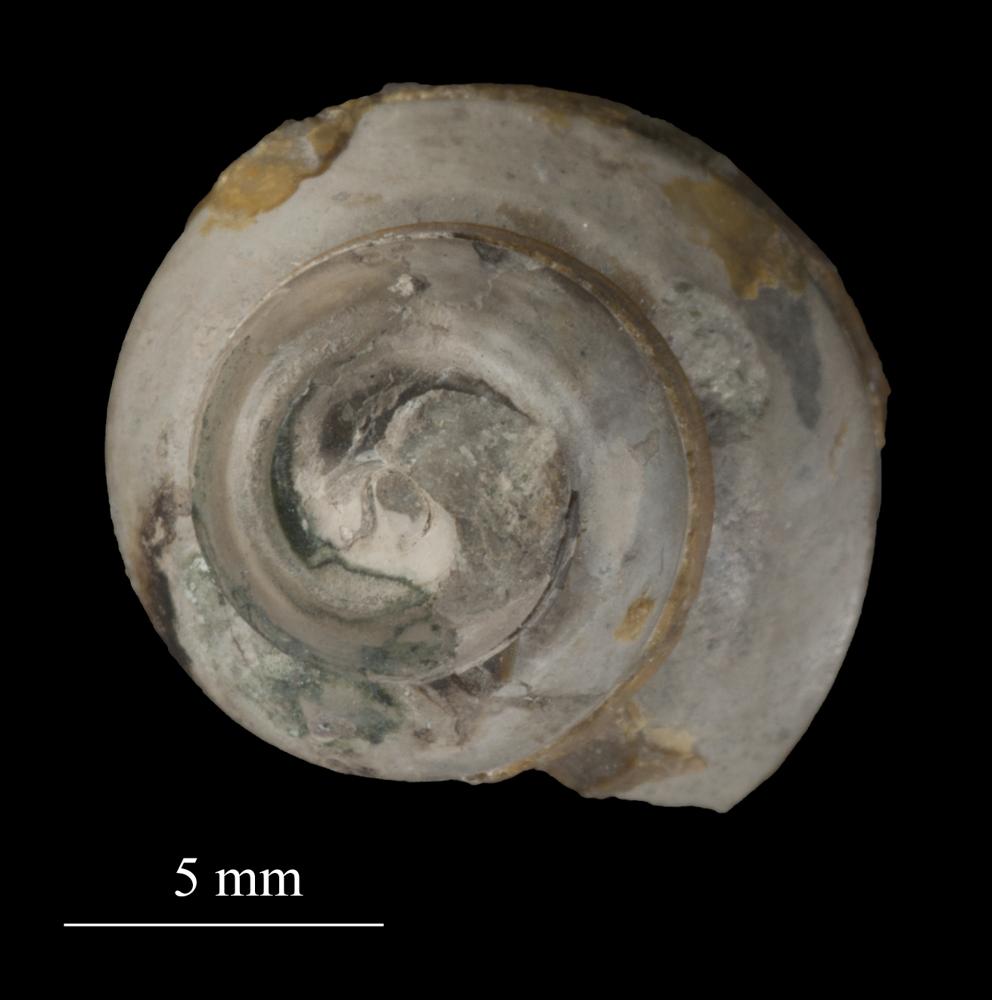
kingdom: Animalia
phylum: Mollusca
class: Gastropoda
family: Lophospiridae
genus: Lophospira
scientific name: Lophospira Worthenia mickwitzi
